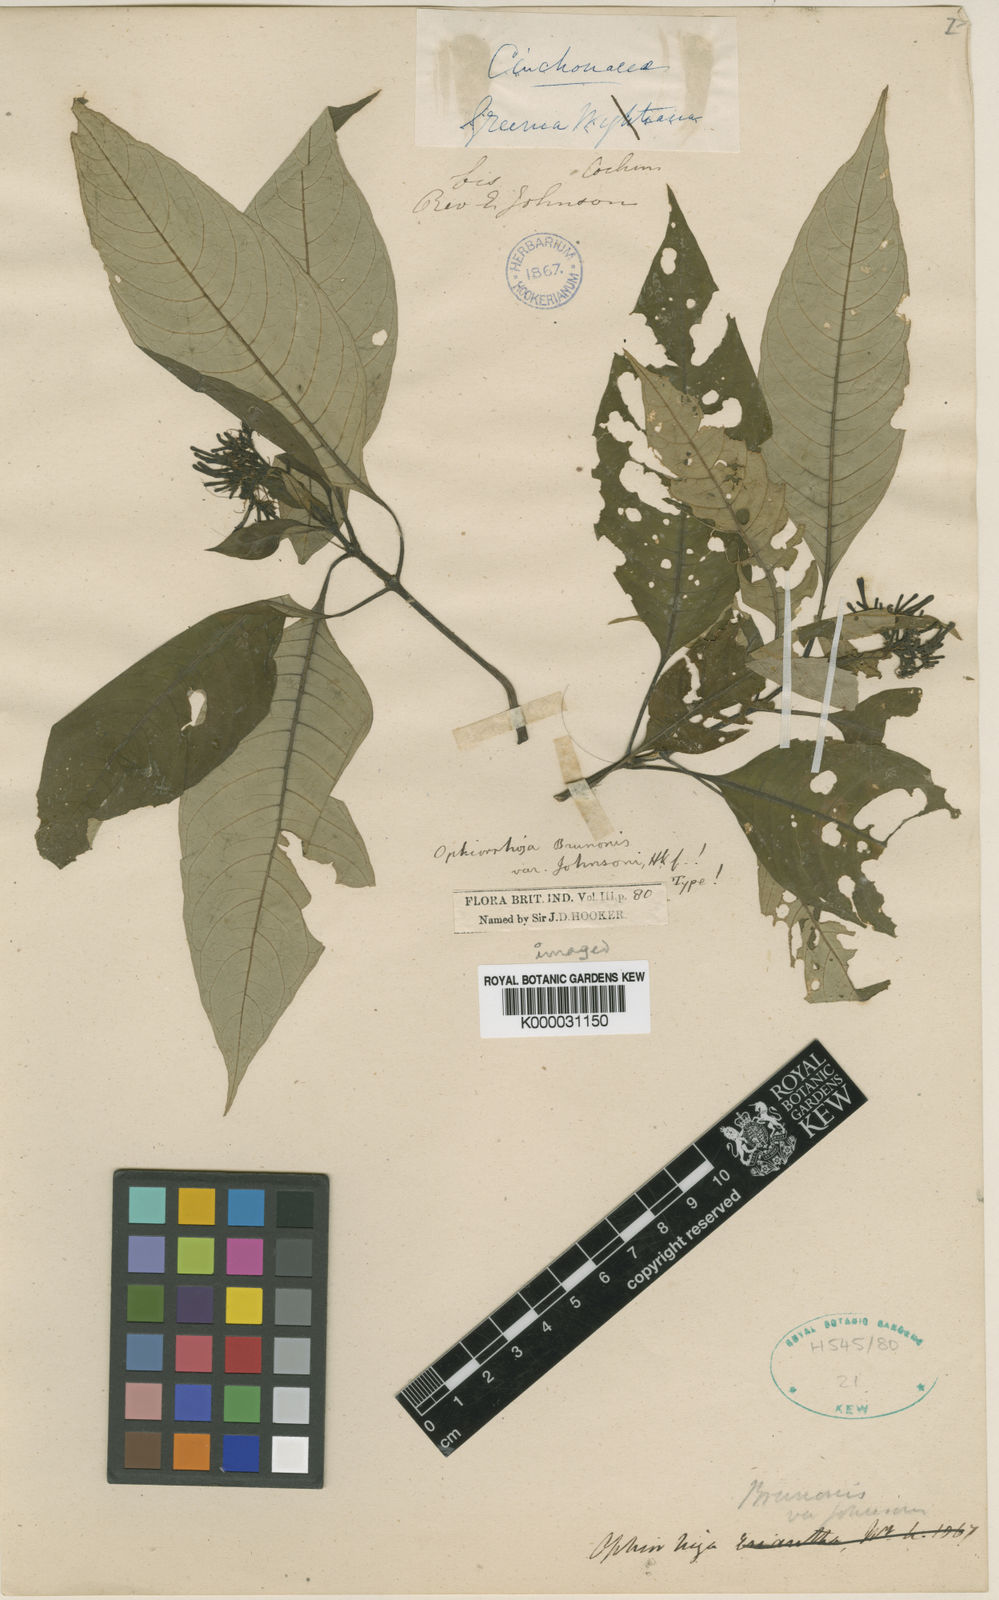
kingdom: Plantae
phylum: Tracheophyta
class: Magnoliopsida
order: Gentianales
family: Rubiaceae
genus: Ophiorrhiza
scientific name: Ophiorrhiza
